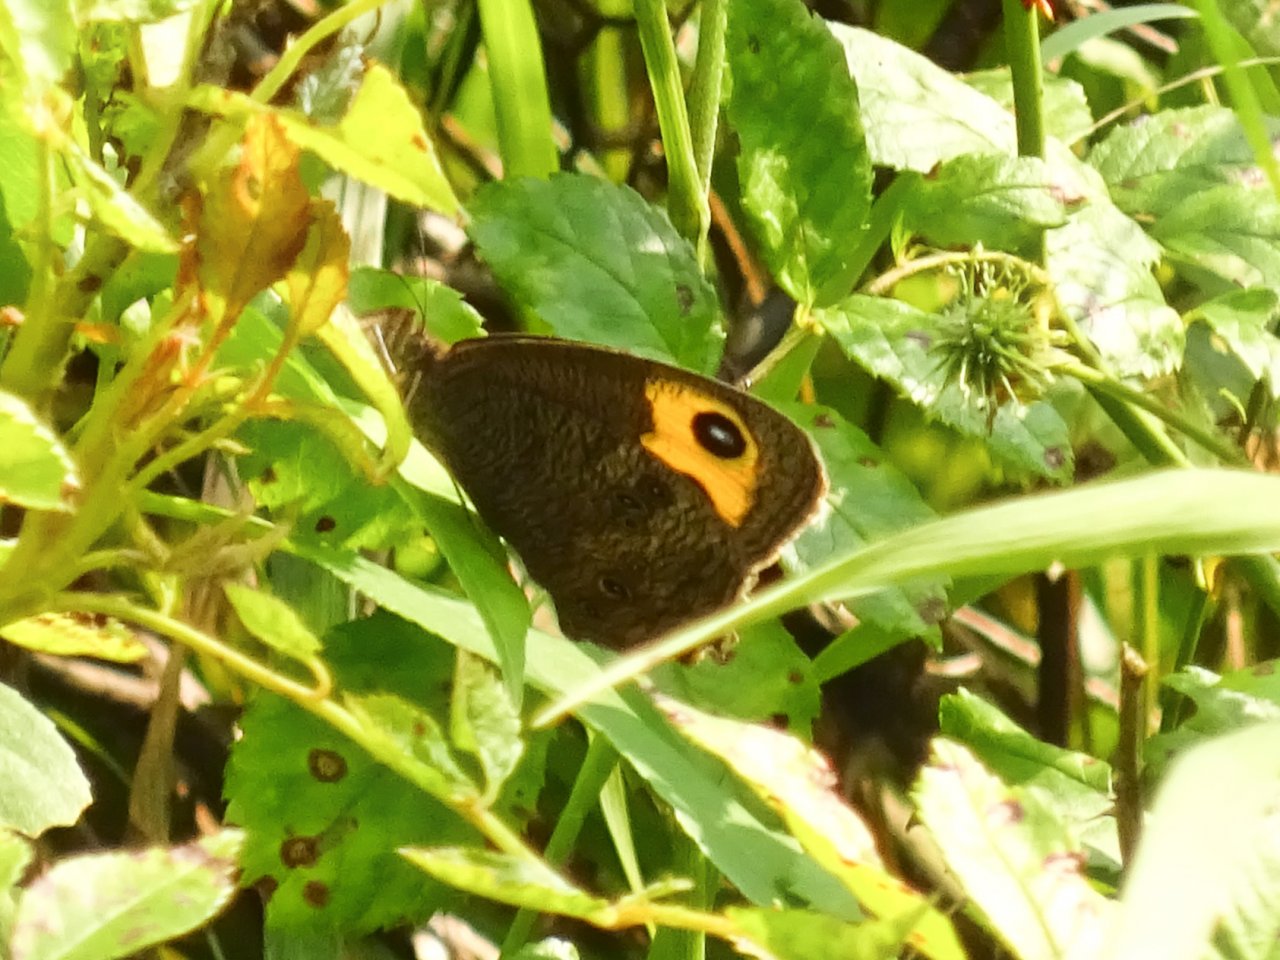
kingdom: Animalia
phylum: Arthropoda
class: Insecta
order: Lepidoptera
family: Nymphalidae
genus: Cercyonis
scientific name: Cercyonis pegala
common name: Common Wood-Nymph
